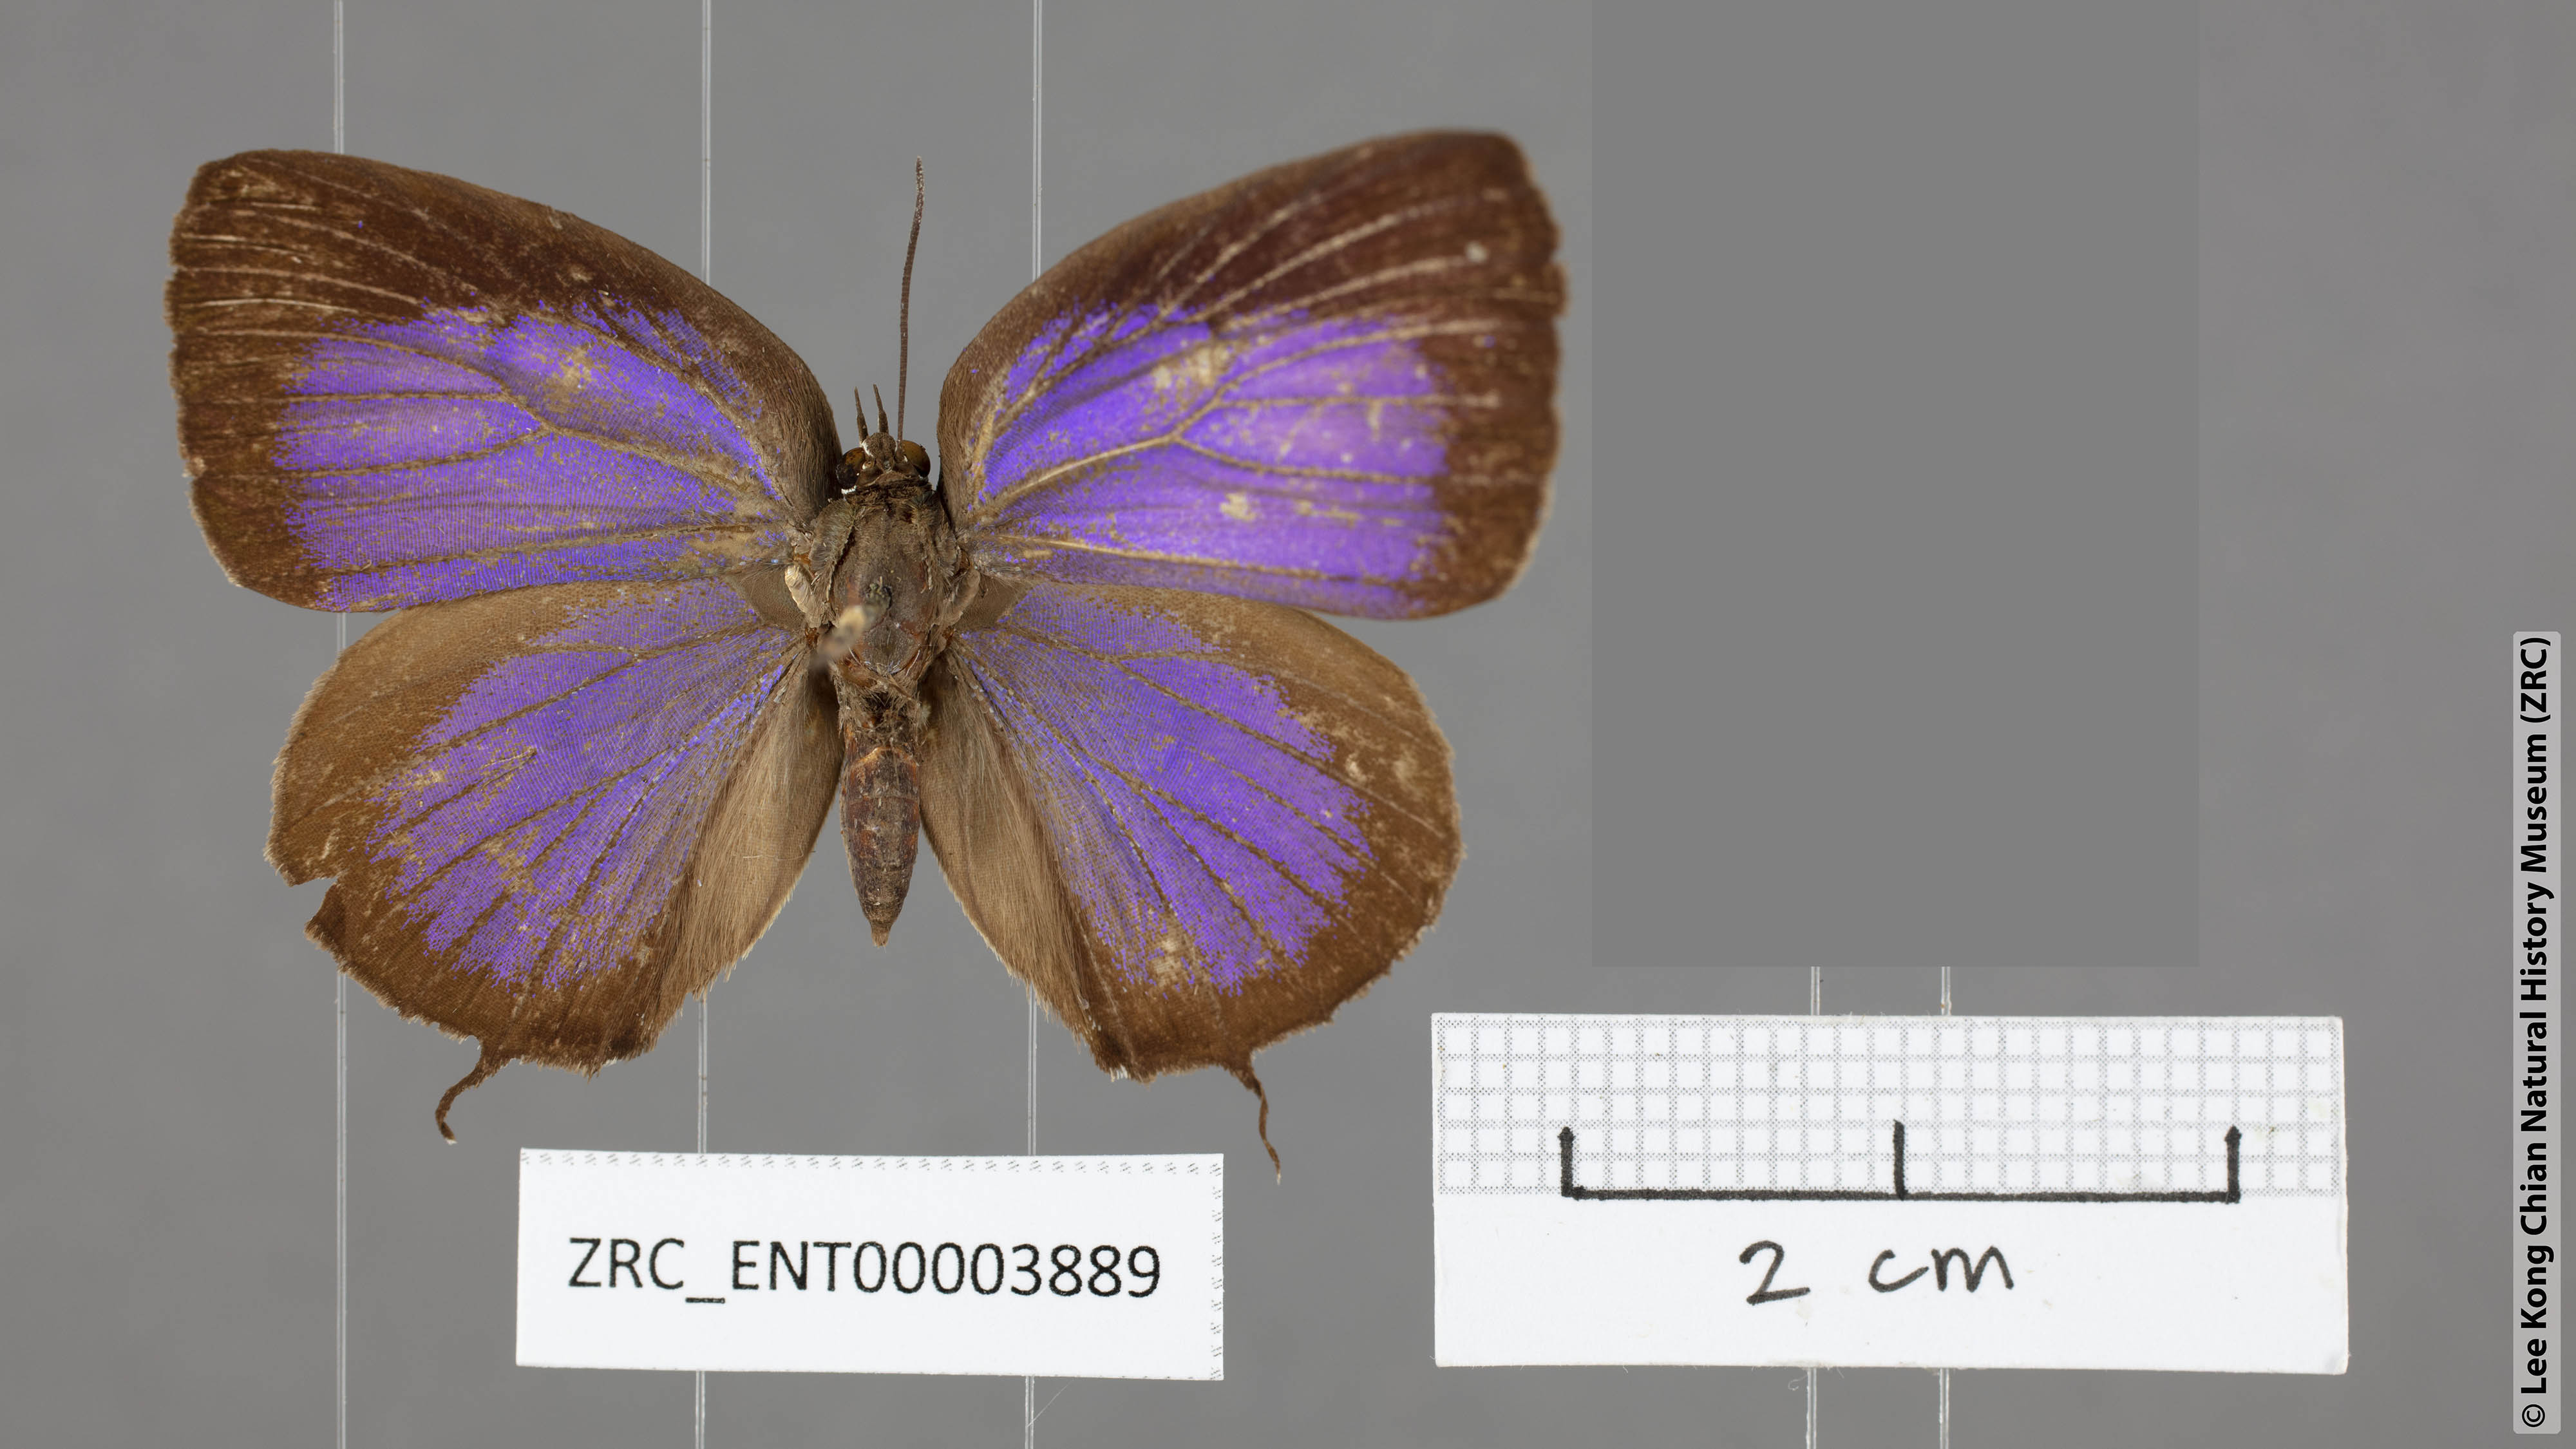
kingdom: Animalia
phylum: Arthropoda
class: Insecta
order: Lepidoptera
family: Lycaenidae
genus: Arhopala
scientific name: Arhopala barami
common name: Wood's oakblue
